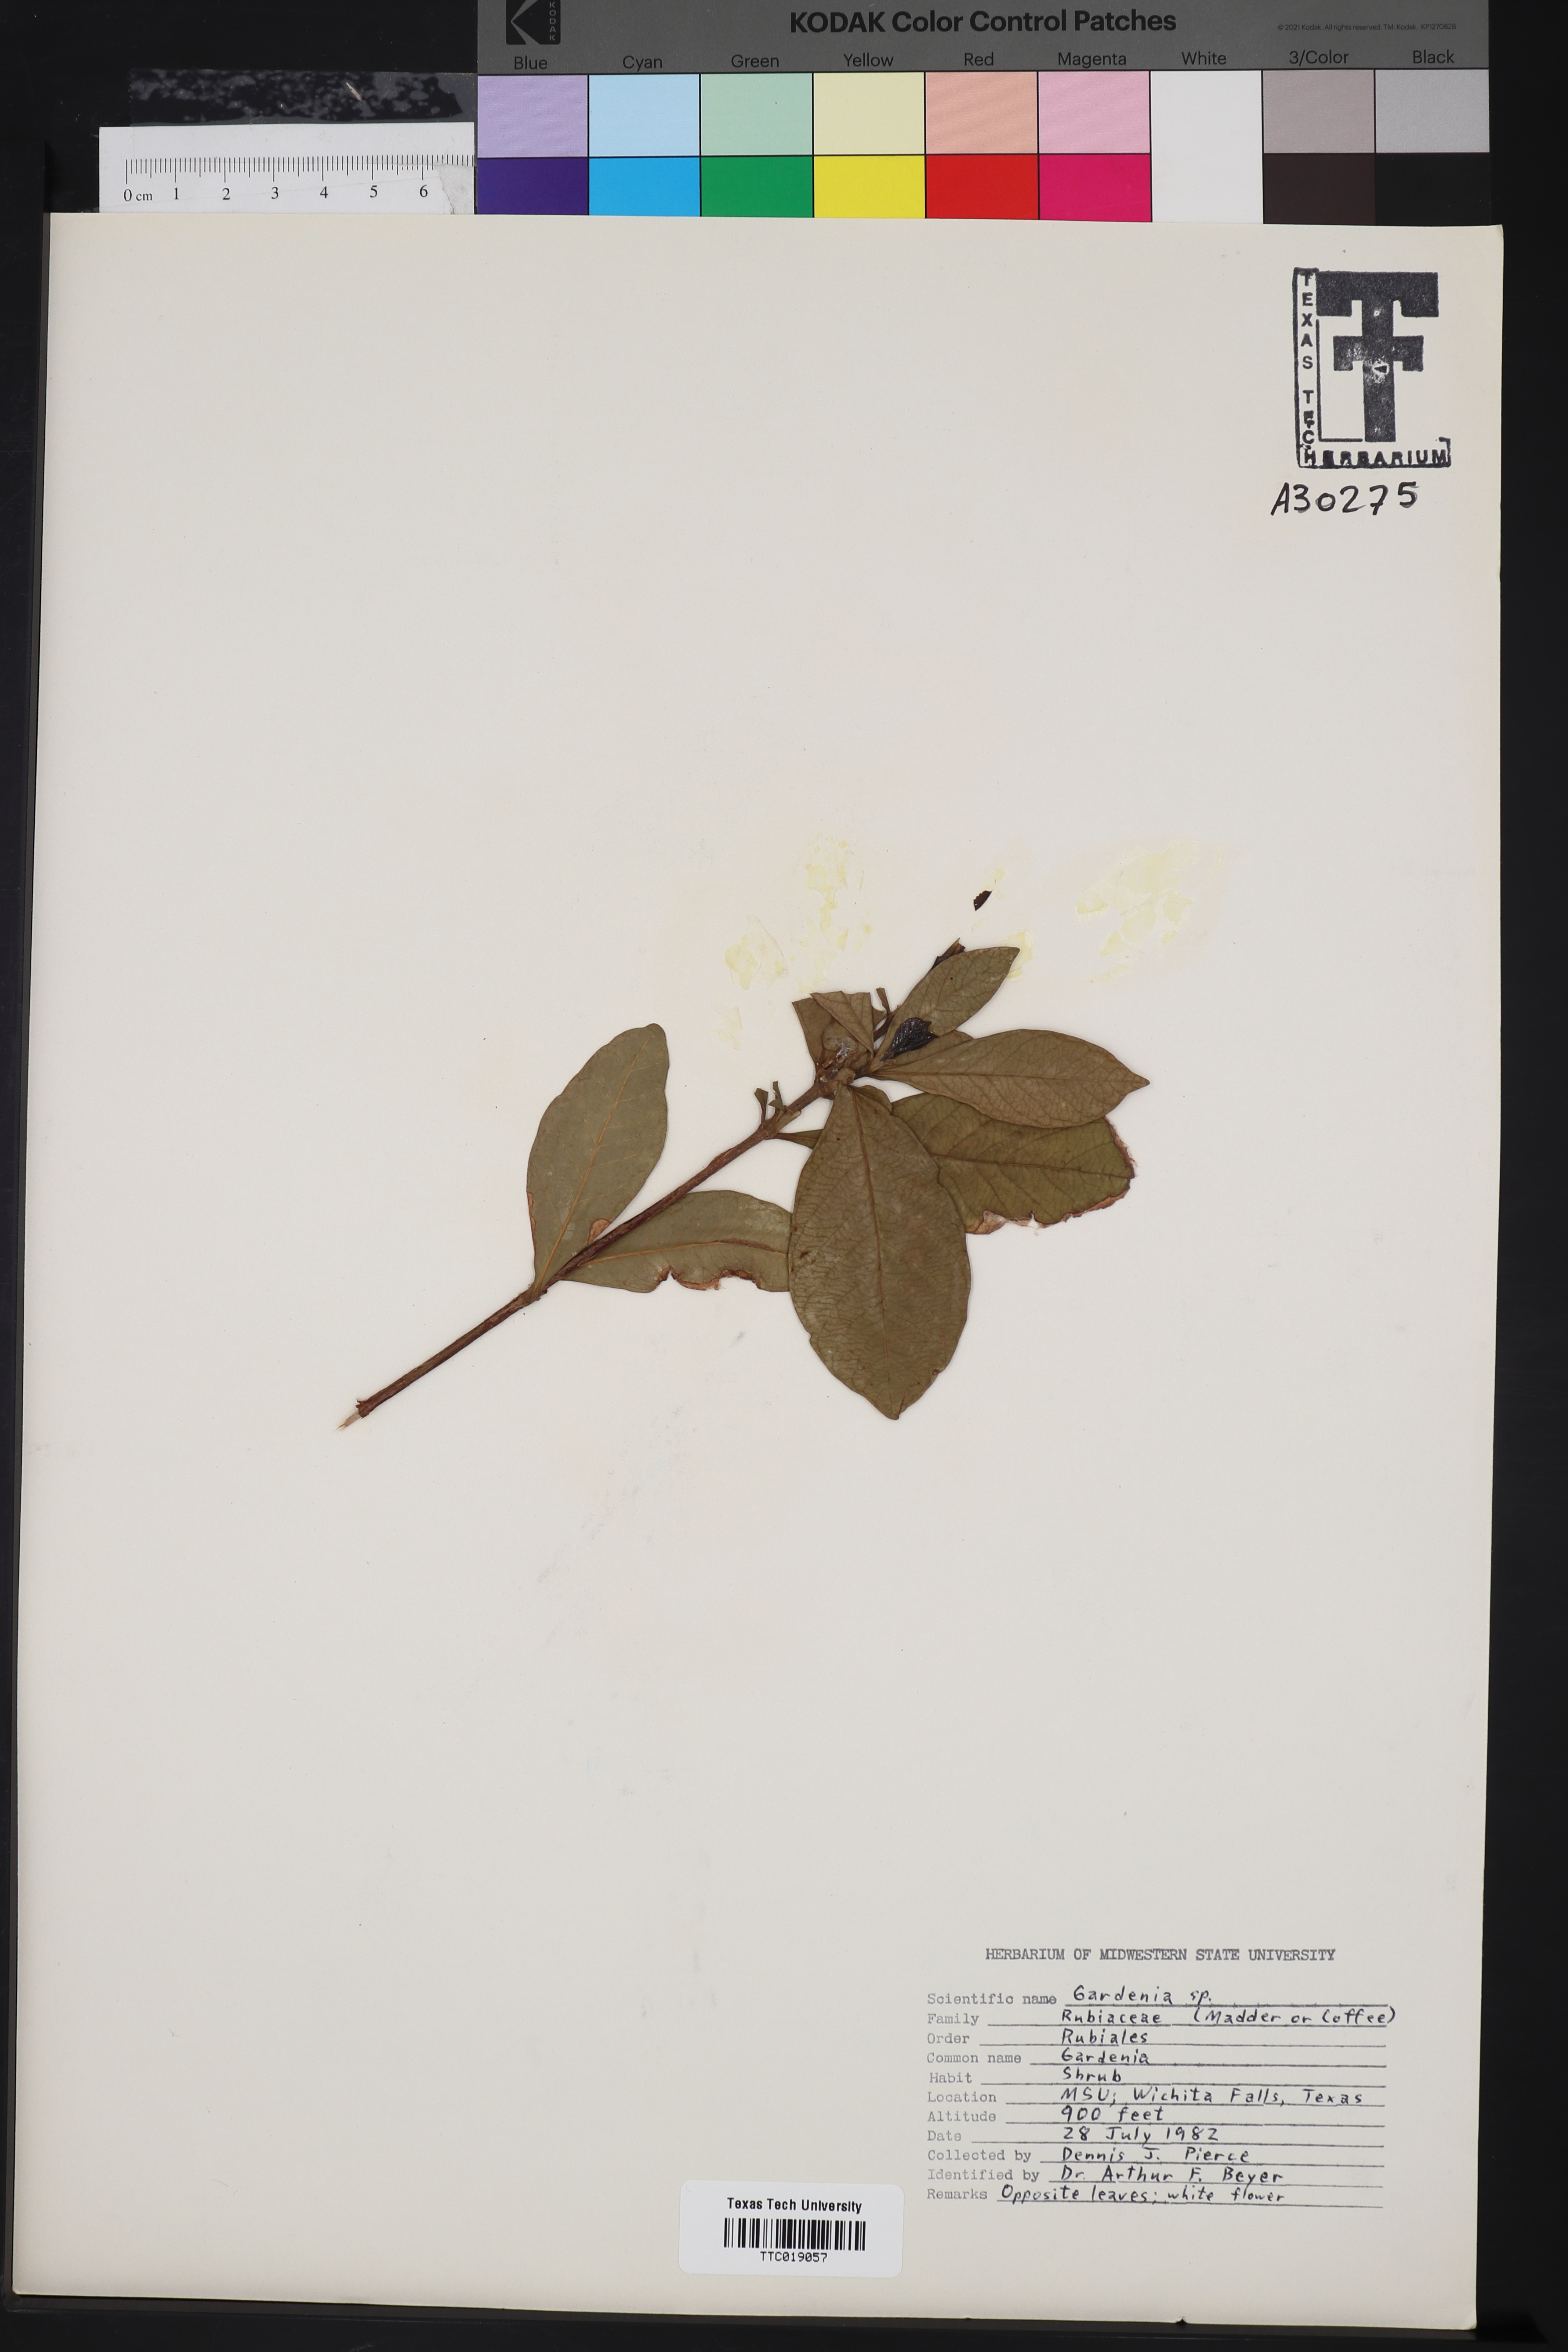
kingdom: Plantae
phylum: Tracheophyta
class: Magnoliopsida
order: Gentianales
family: Rubiaceae
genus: Gardenia
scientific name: Gardenia
